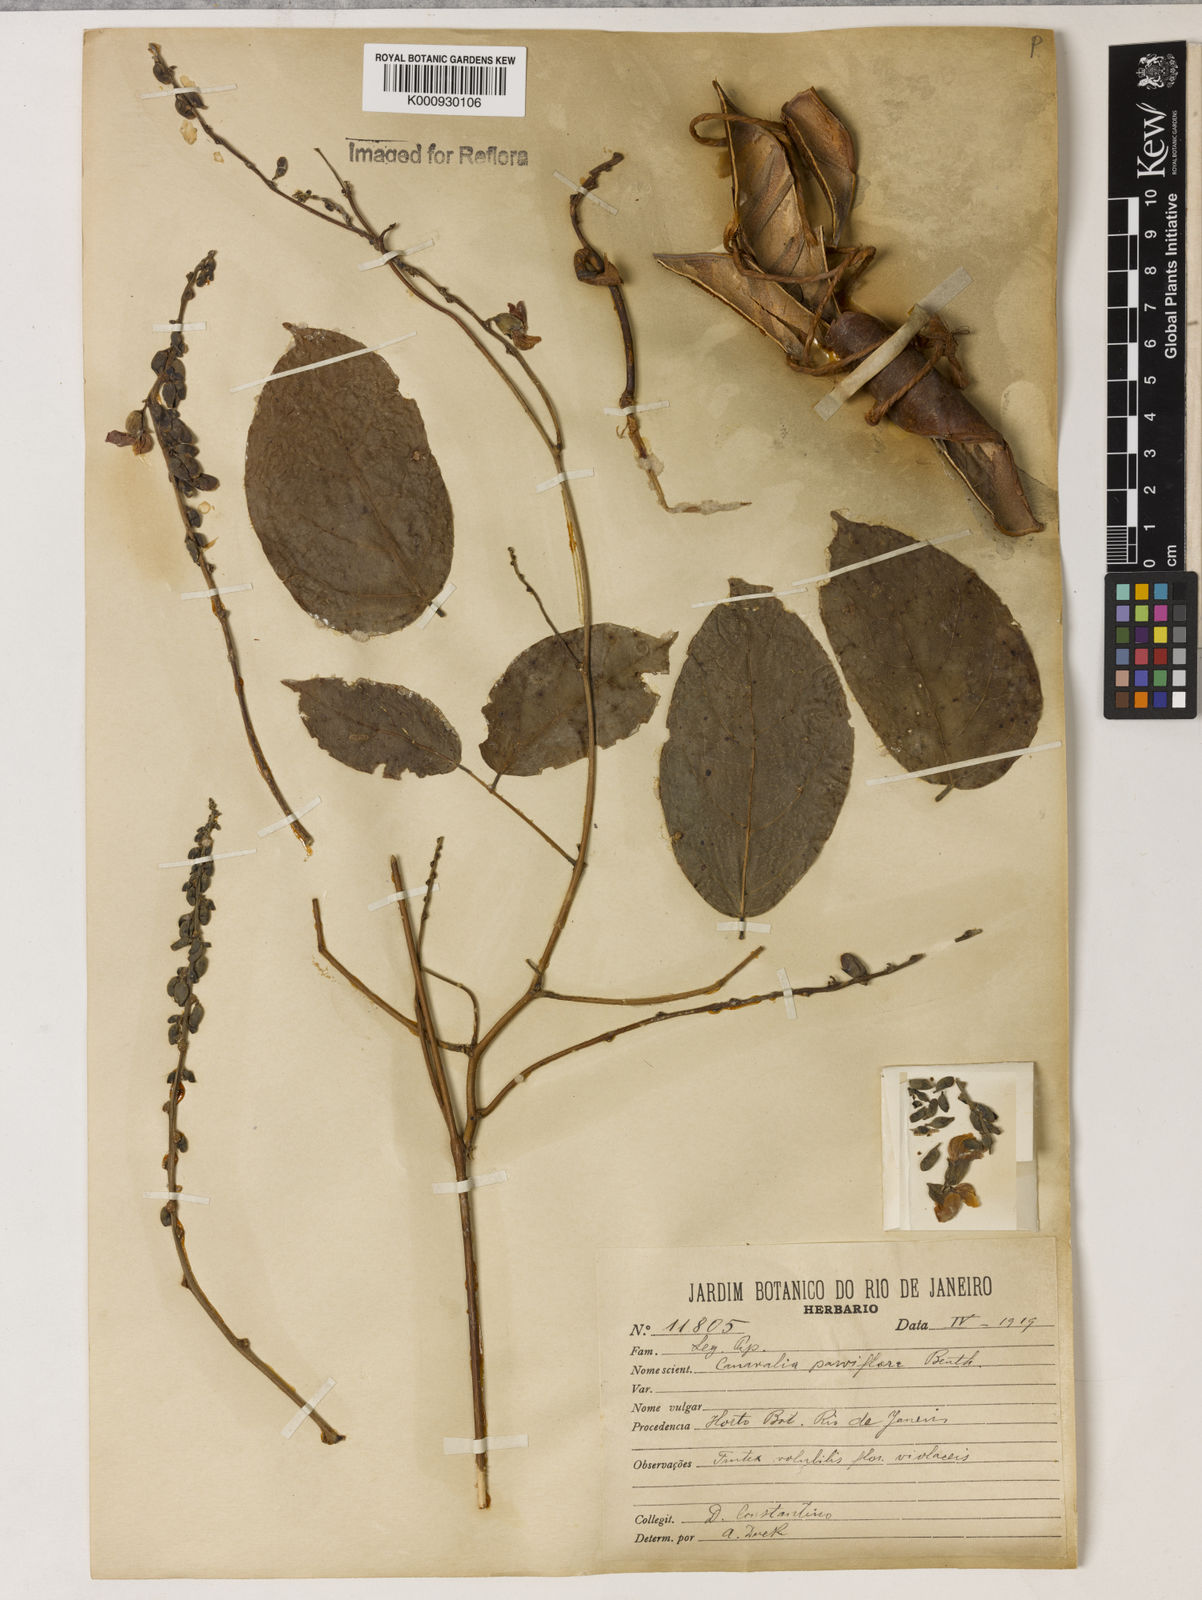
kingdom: Plantae
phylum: Tracheophyta
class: Magnoliopsida
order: Fabales
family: Fabaceae
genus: Canavalia
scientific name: Canavalia parviflora
